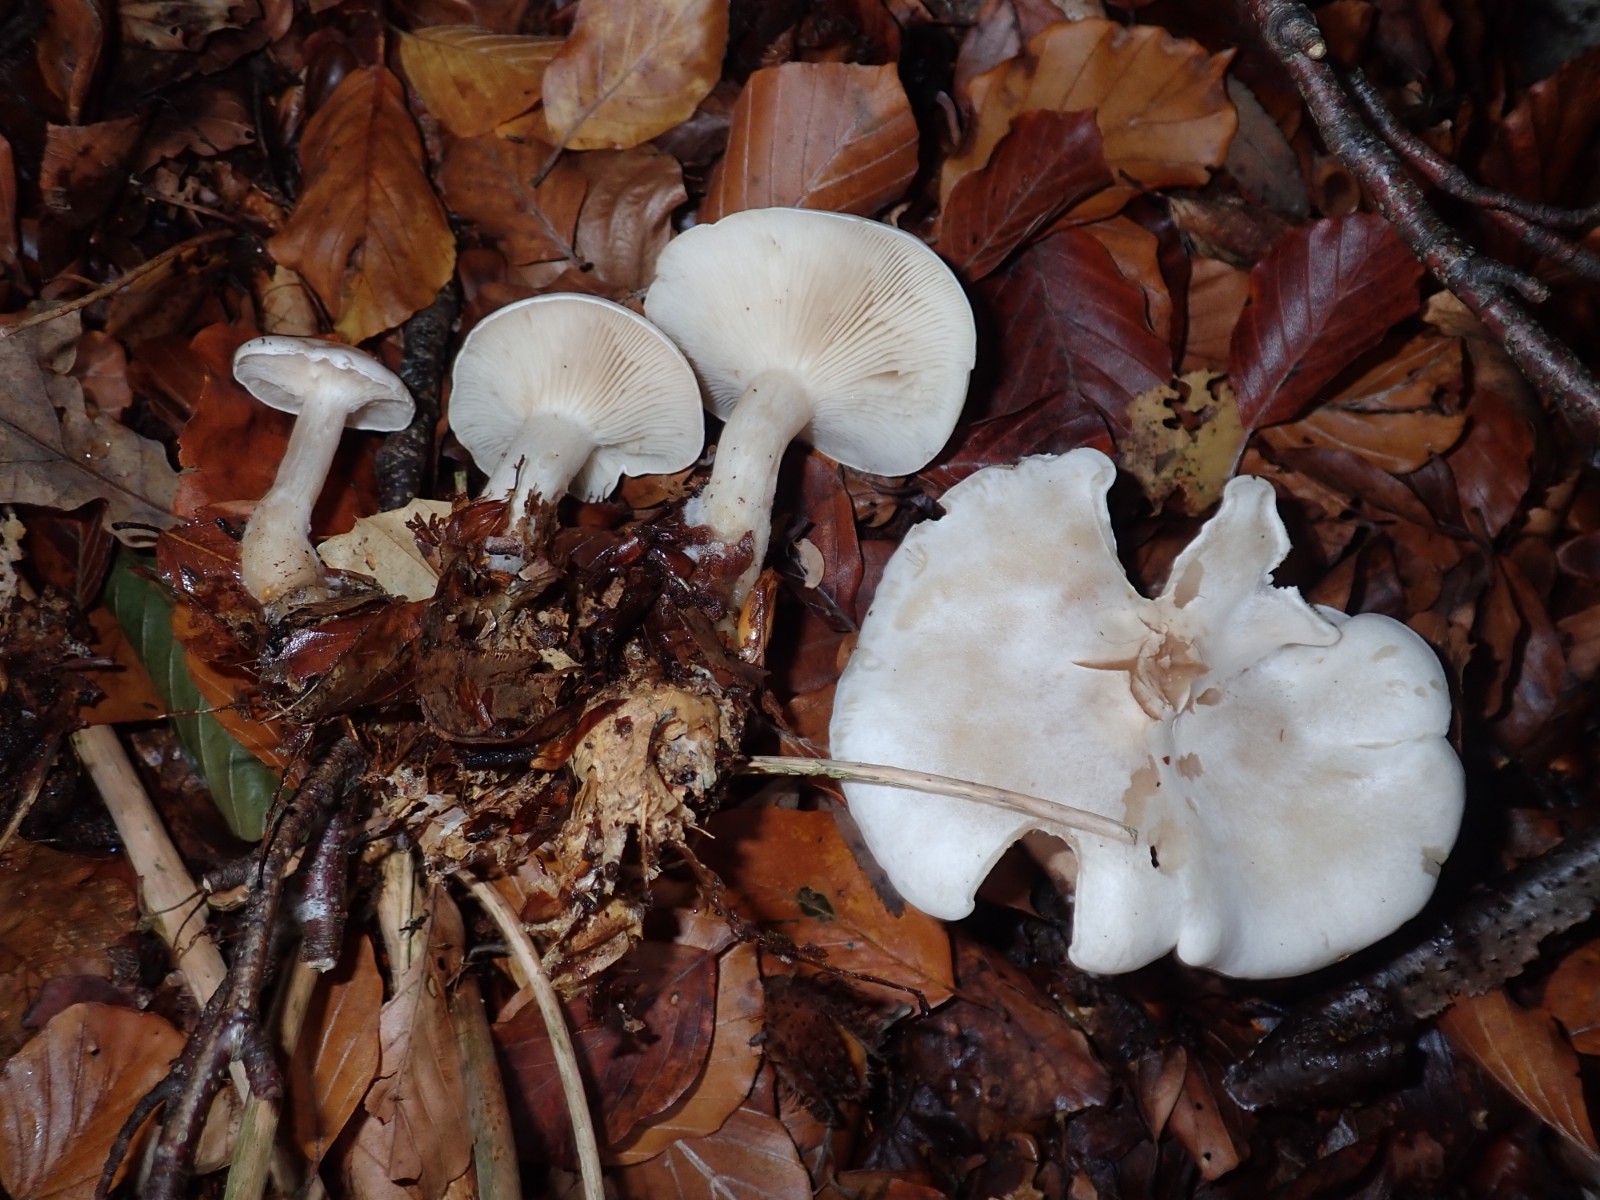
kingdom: Fungi
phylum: Basidiomycota
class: Agaricomycetes
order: Agaricales
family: Tricholomataceae
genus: Clitocybe
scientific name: Clitocybe phyllophila
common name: løv-tragthat
